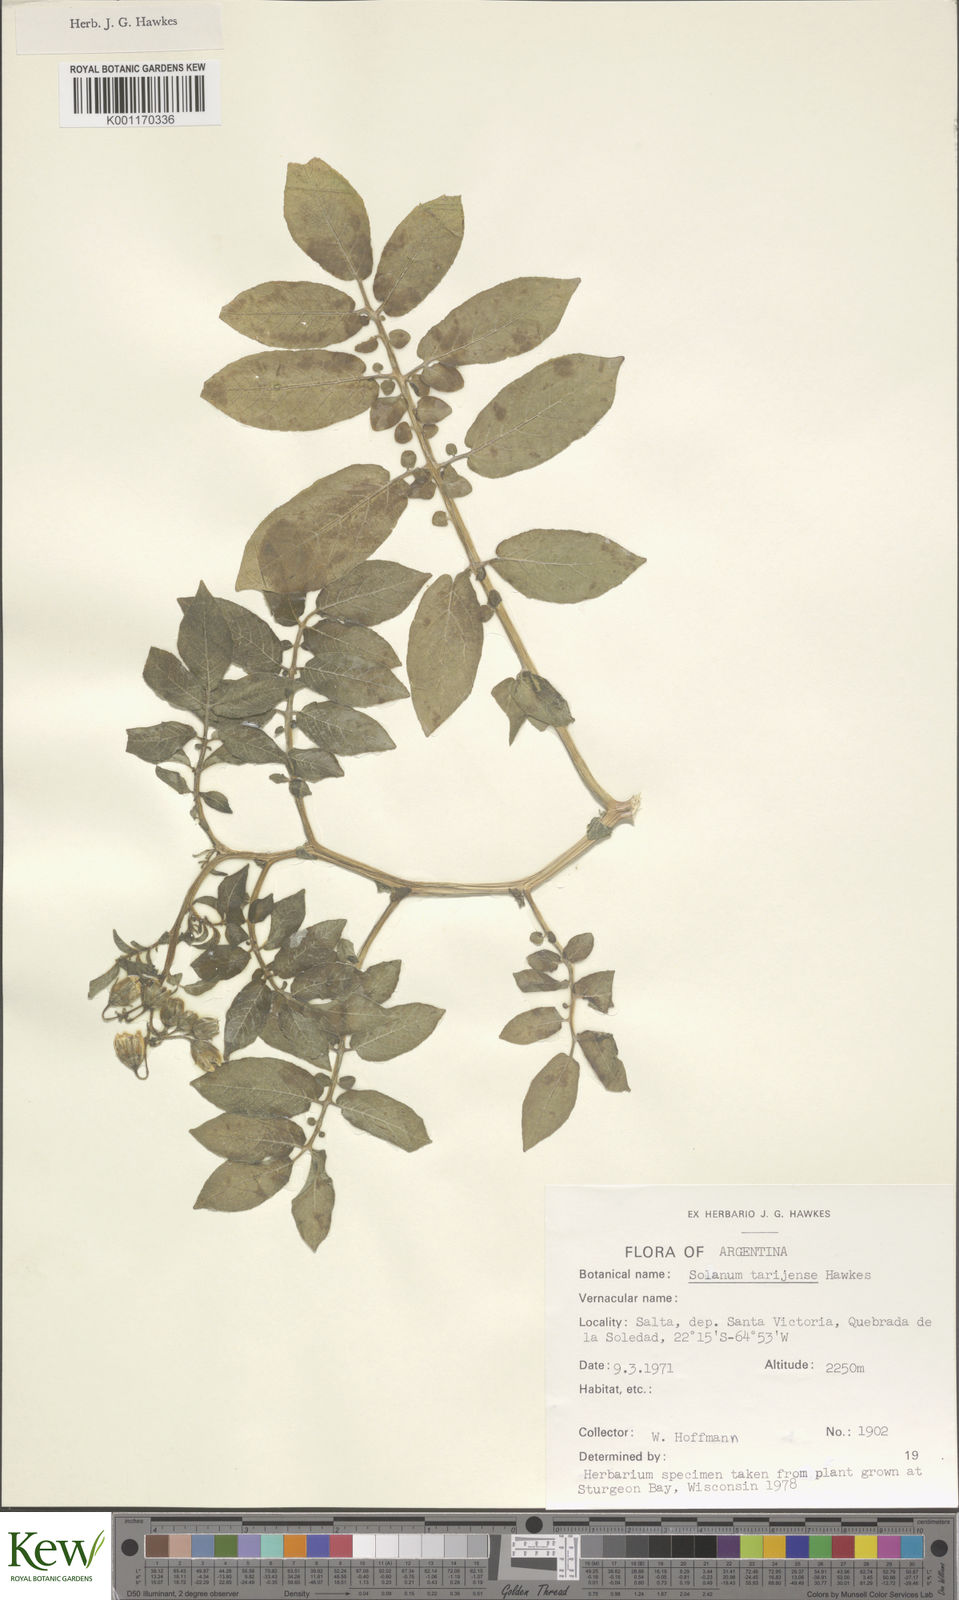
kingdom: Plantae
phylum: Tracheophyta
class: Magnoliopsida
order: Solanales
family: Solanaceae
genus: Solanum
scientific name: Solanum tarijense
